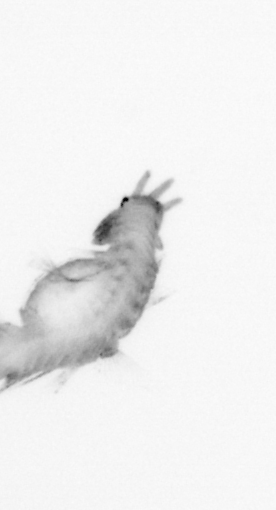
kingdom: Animalia
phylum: Annelida
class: Polychaeta
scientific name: Polychaeta
